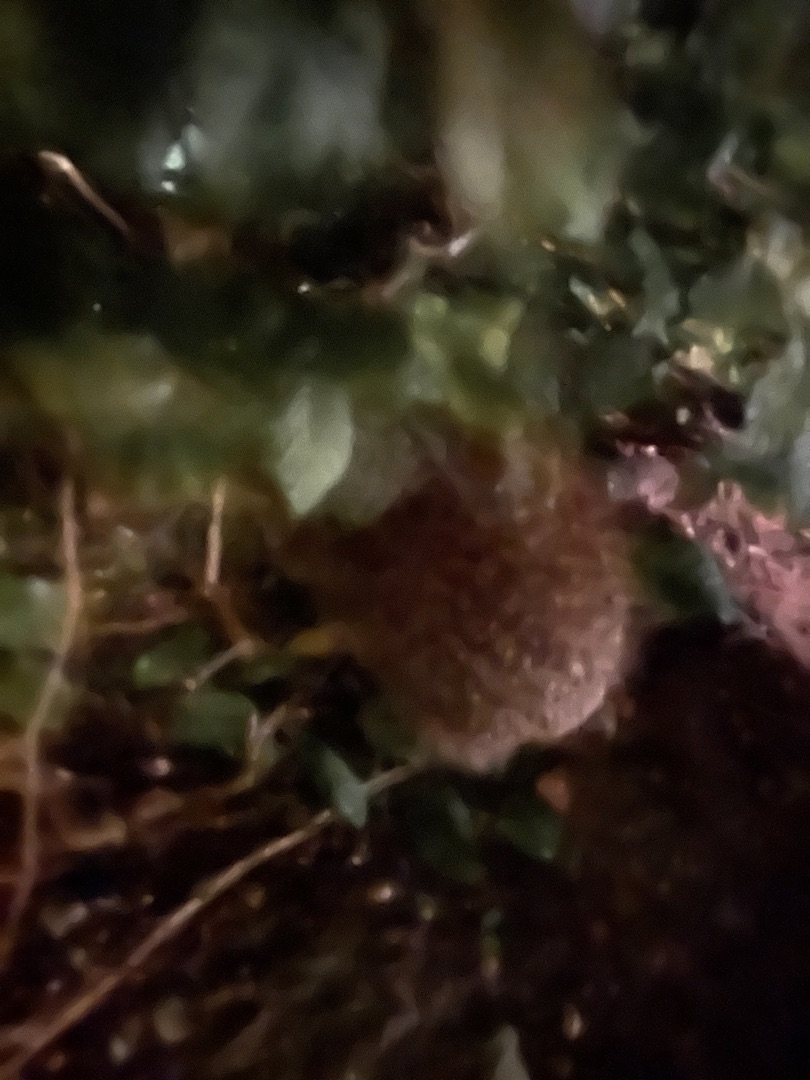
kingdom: Animalia
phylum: Chordata
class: Mammalia
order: Erinaceomorpha
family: Erinaceidae
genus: Erinaceus
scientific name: Erinaceus europaeus
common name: Pindsvin
